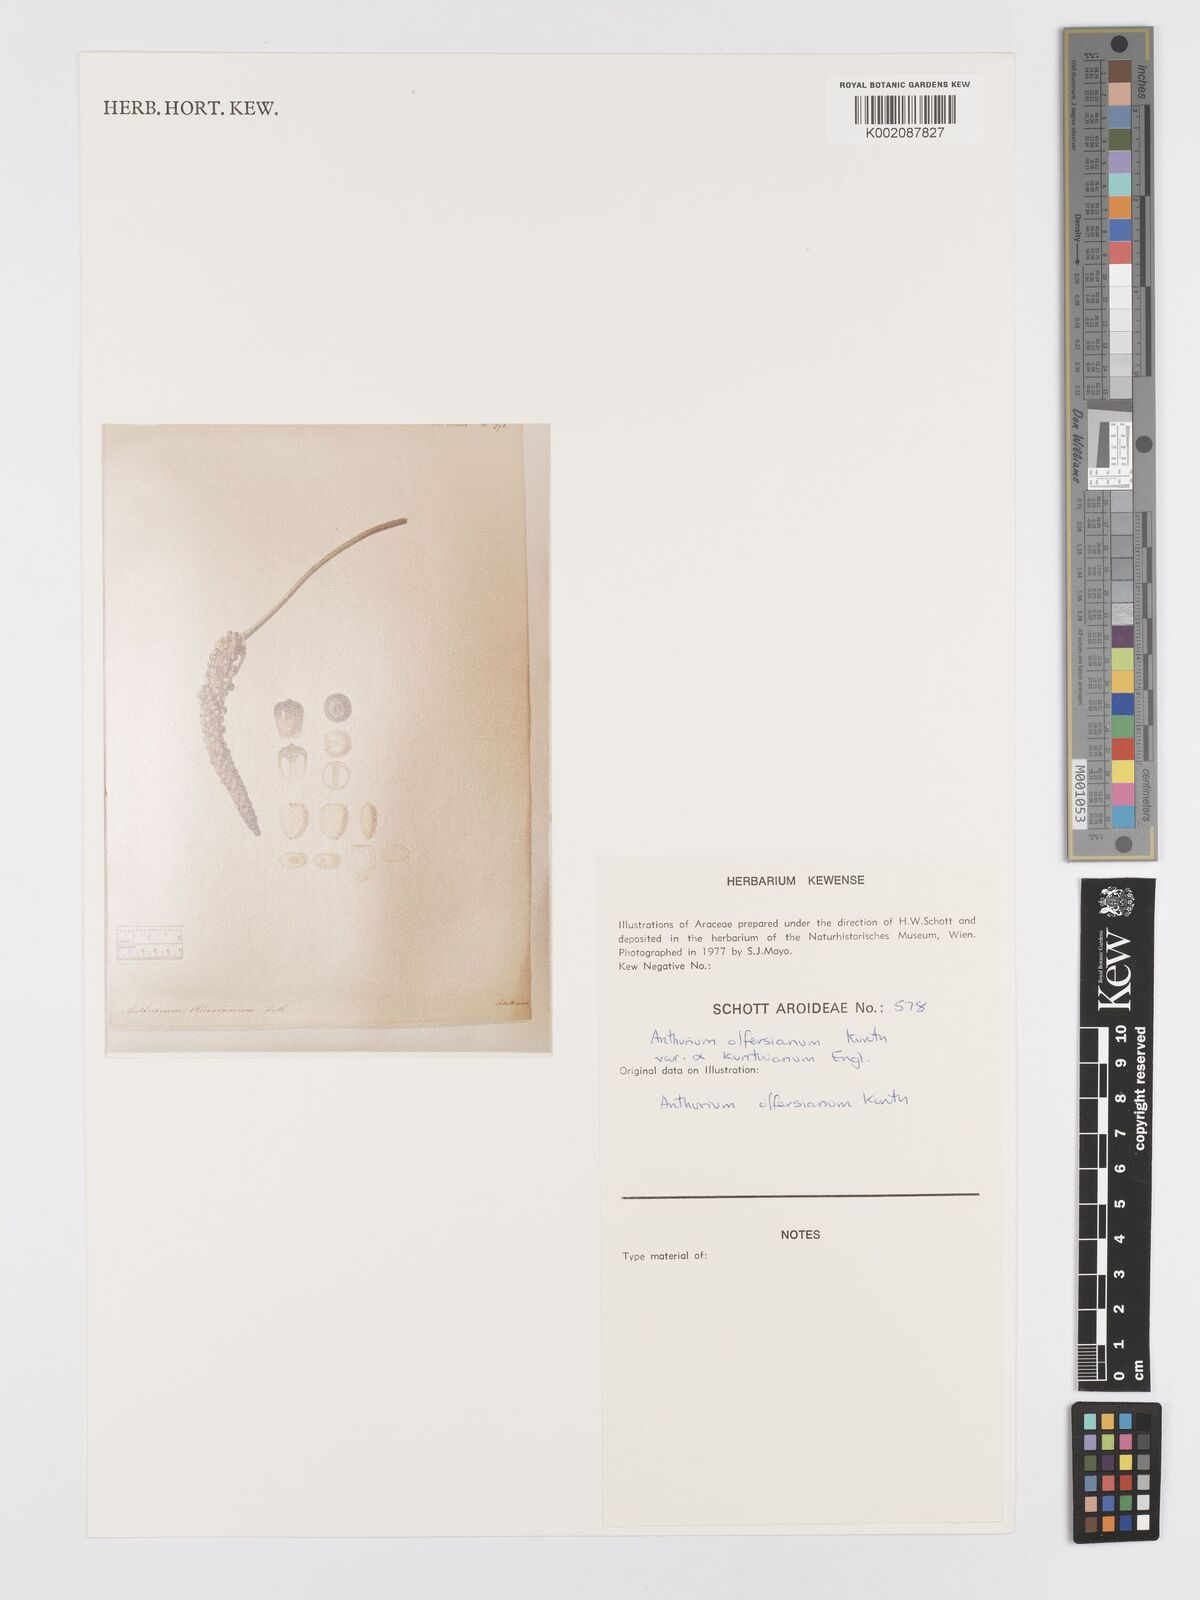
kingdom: Plantae
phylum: Tracheophyta
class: Liliopsida
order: Alismatales
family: Araceae
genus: Anthurium
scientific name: Anthurium parasiticum
